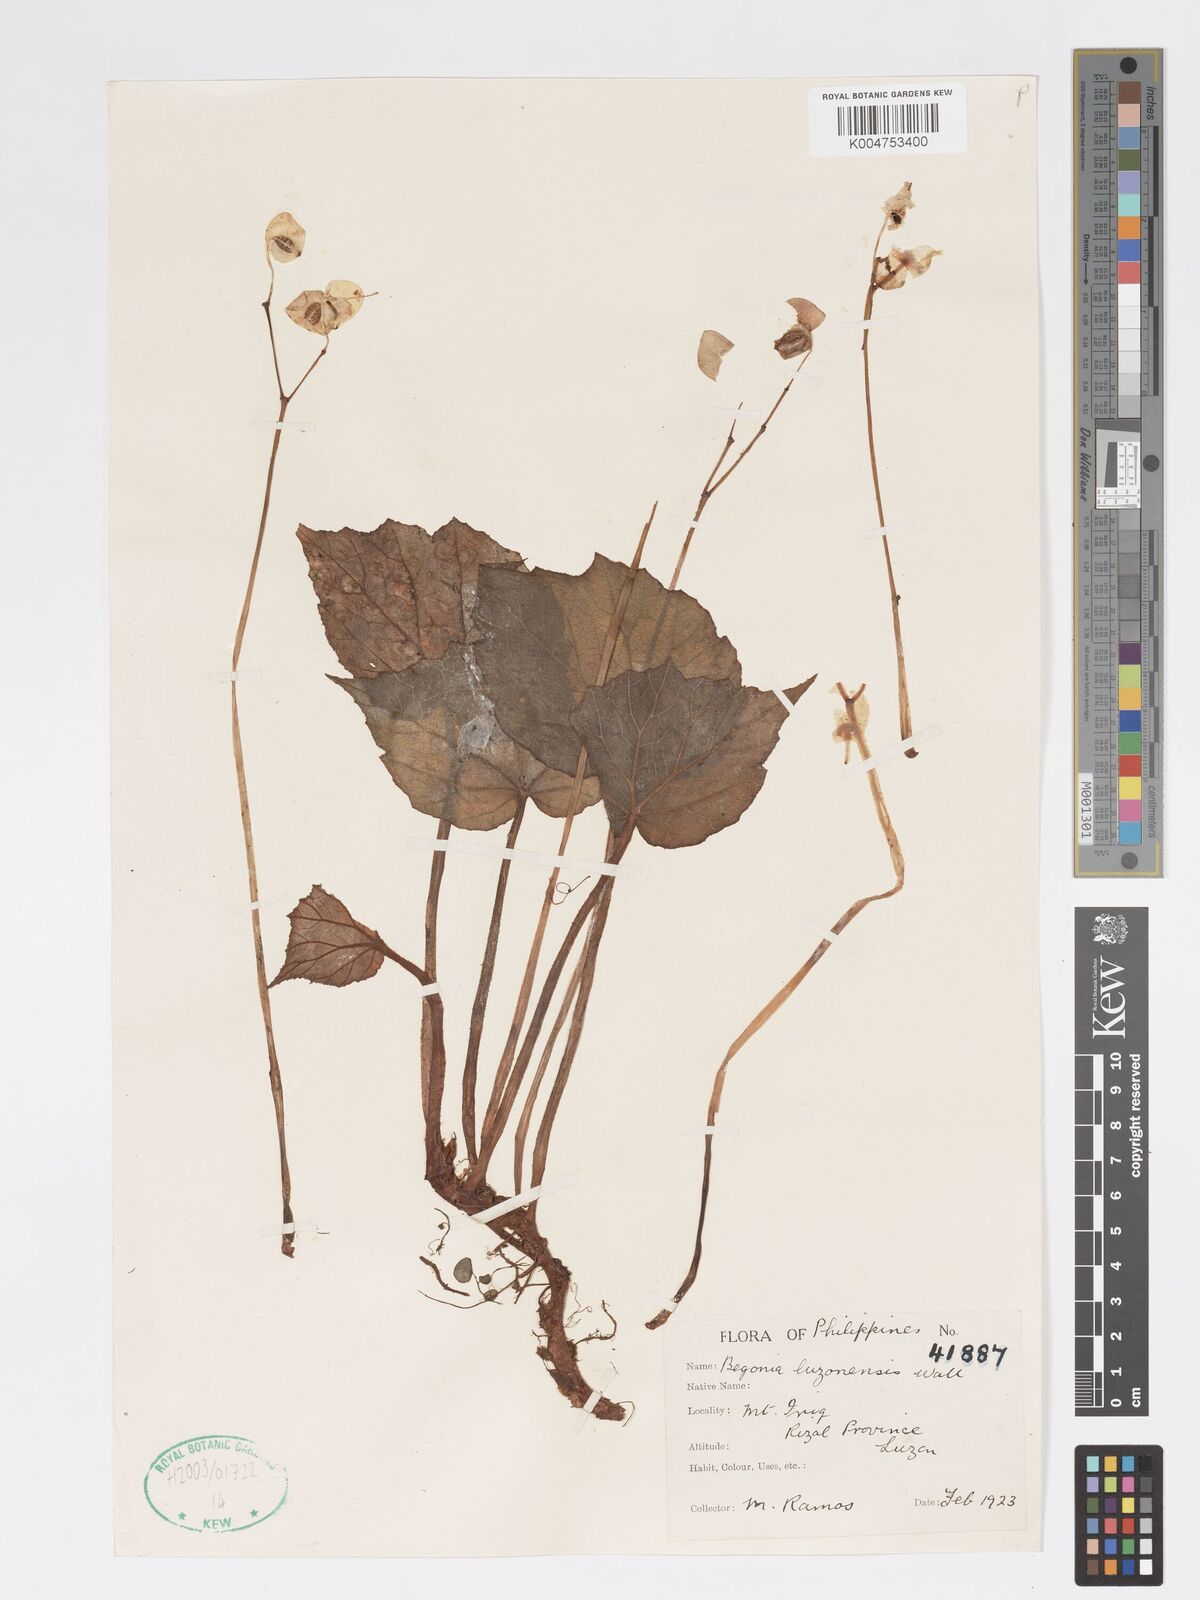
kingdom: Plantae
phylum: Tracheophyta
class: Magnoliopsida
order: Cucurbitales
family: Begoniaceae
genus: Begonia
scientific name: Begonia luzonensis
